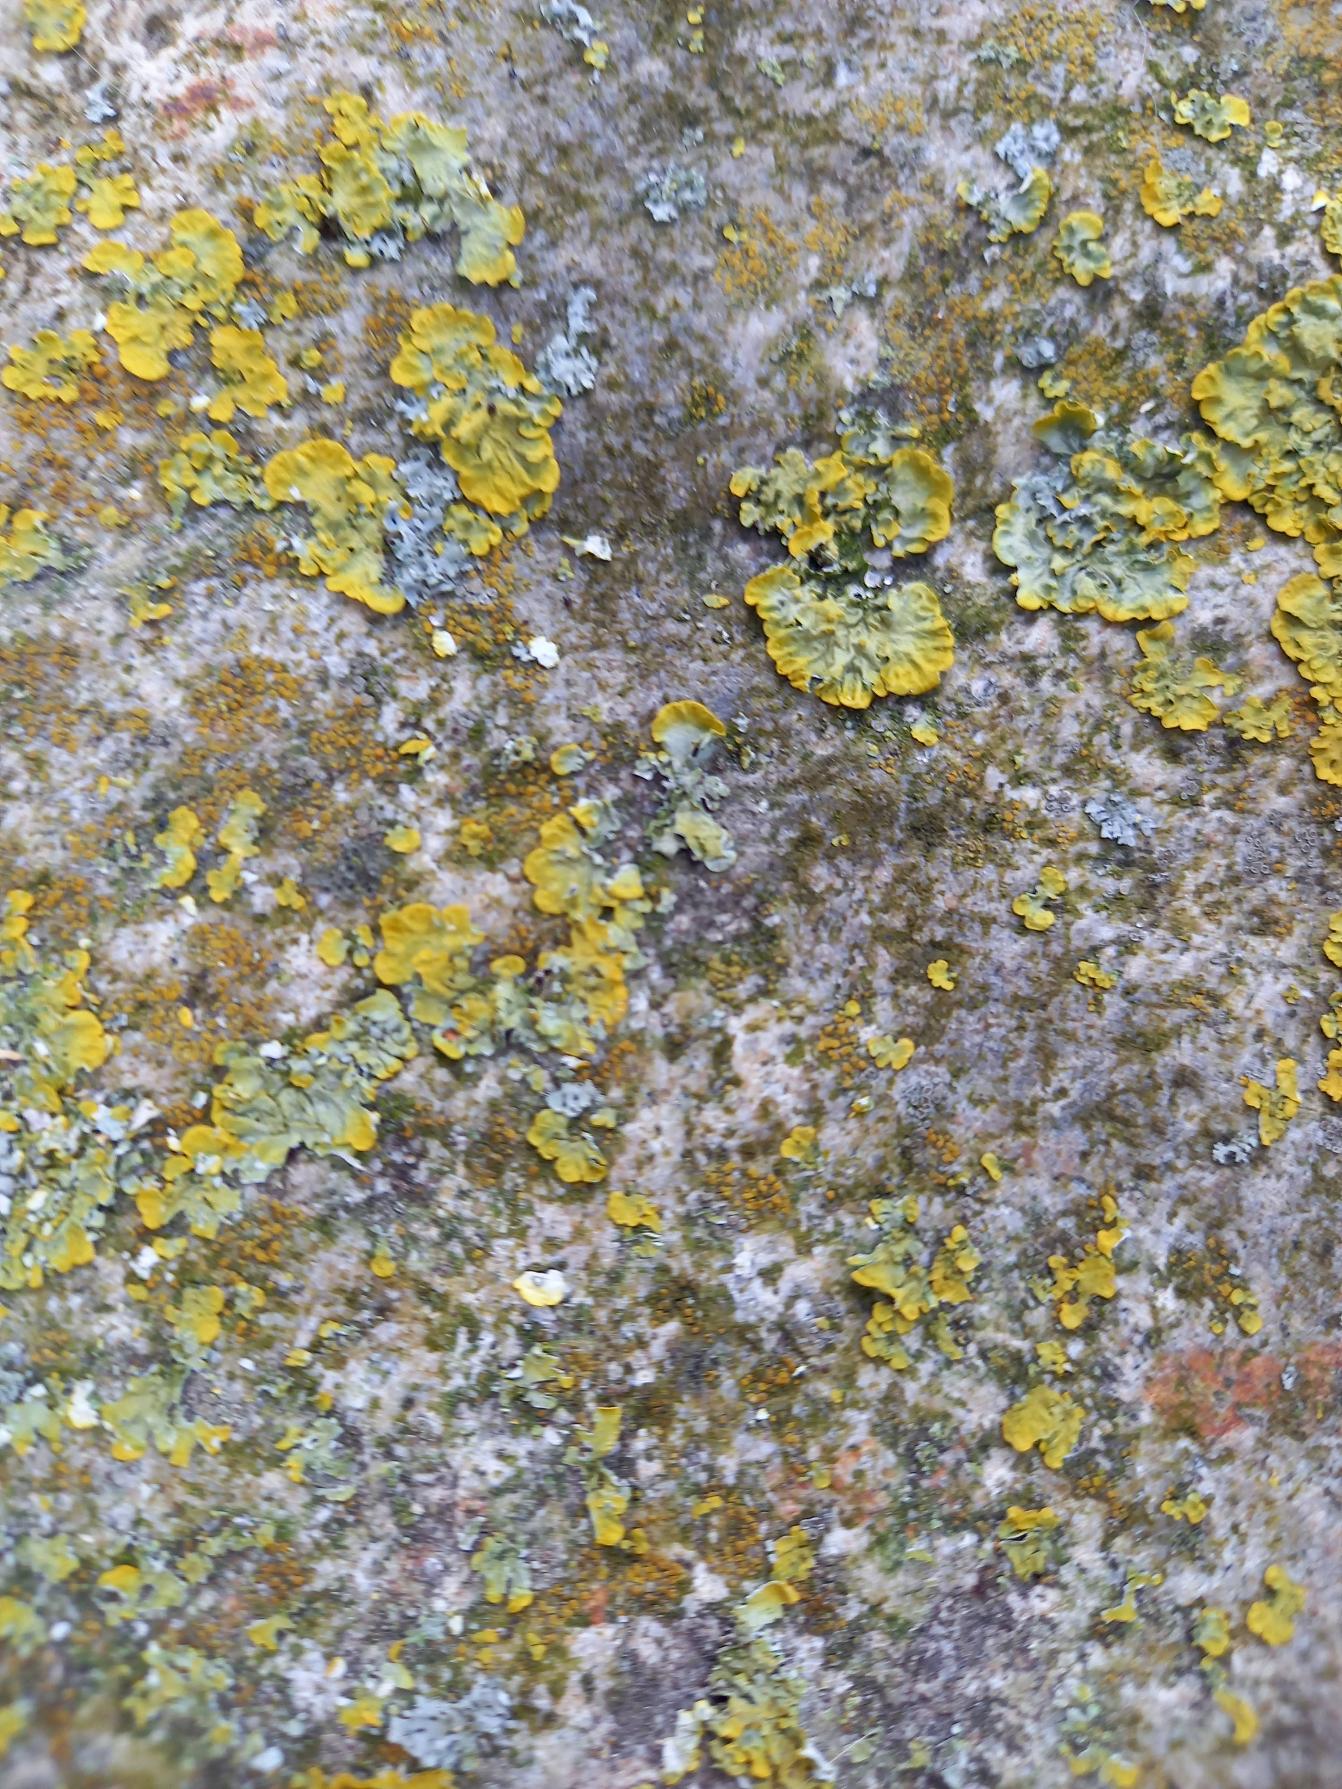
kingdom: Fungi
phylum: Ascomycota
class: Lecanoromycetes
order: Teloschistales
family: Teloschistaceae
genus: Xanthoria
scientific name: Xanthoria parietina
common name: Almindelig væggelav
